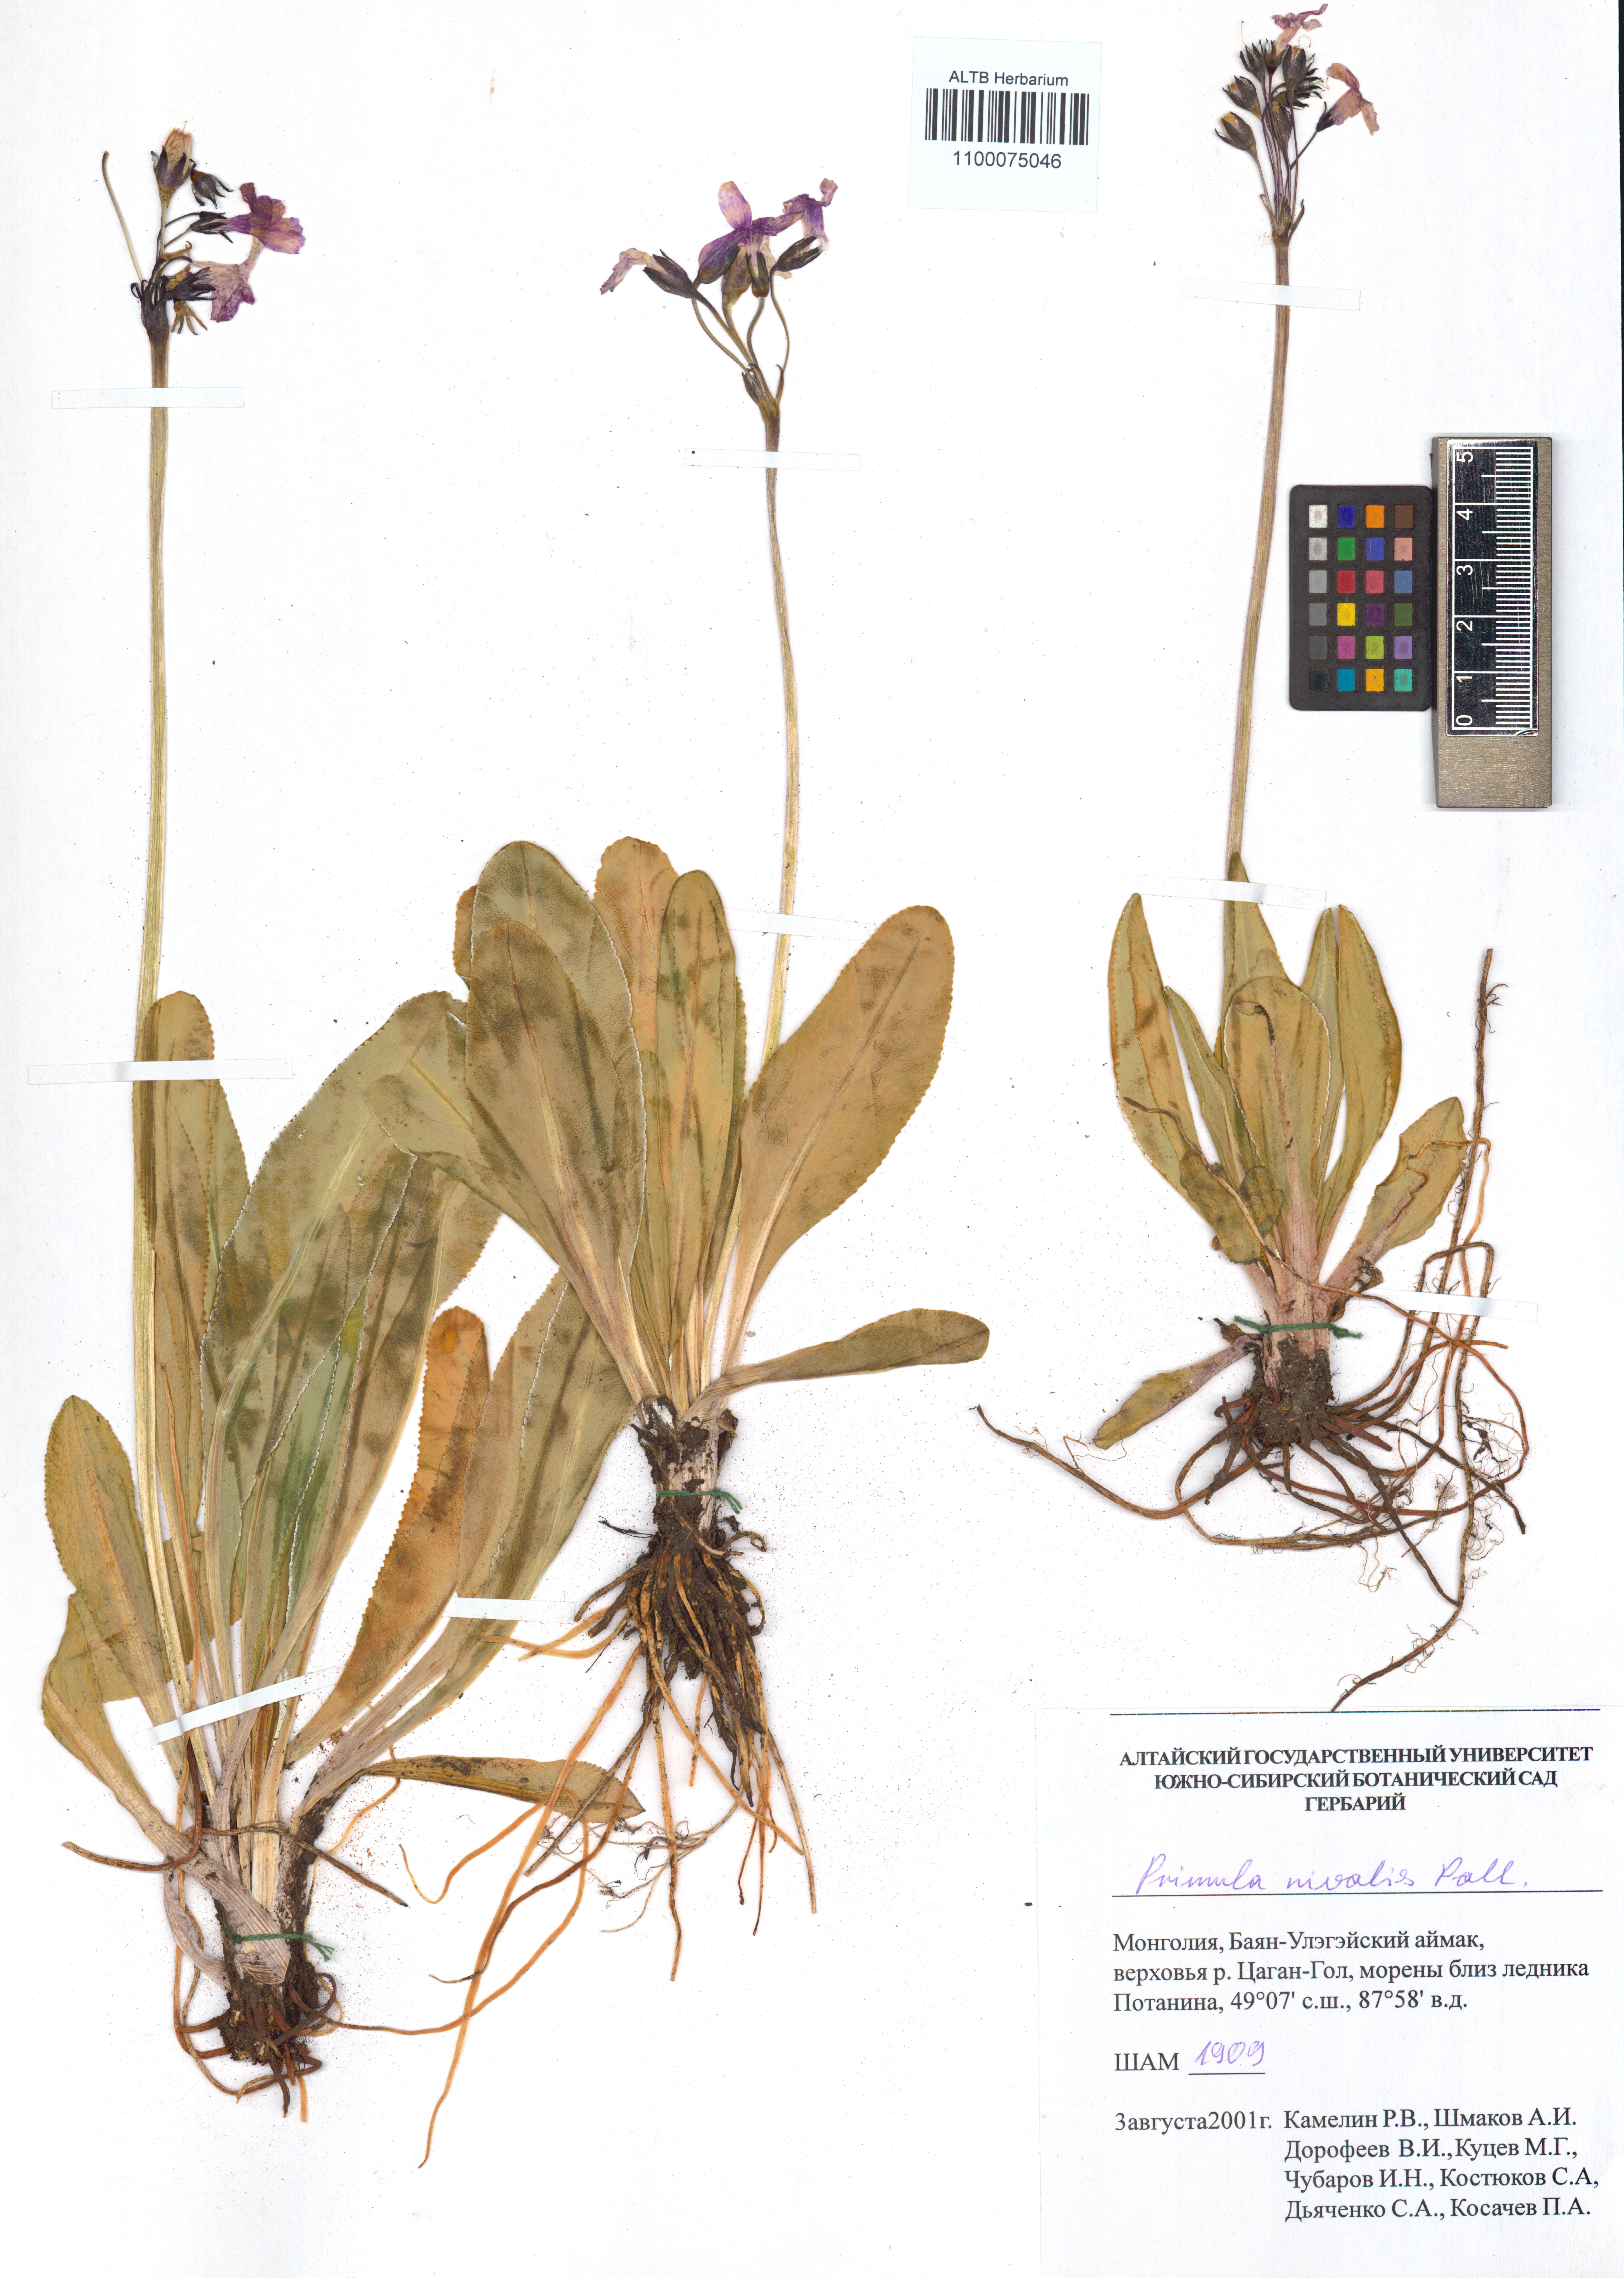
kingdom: Plantae
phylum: Tracheophyta
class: Magnoliopsida
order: Ericales
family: Primulaceae
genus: Primula
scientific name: Primula nivalis
